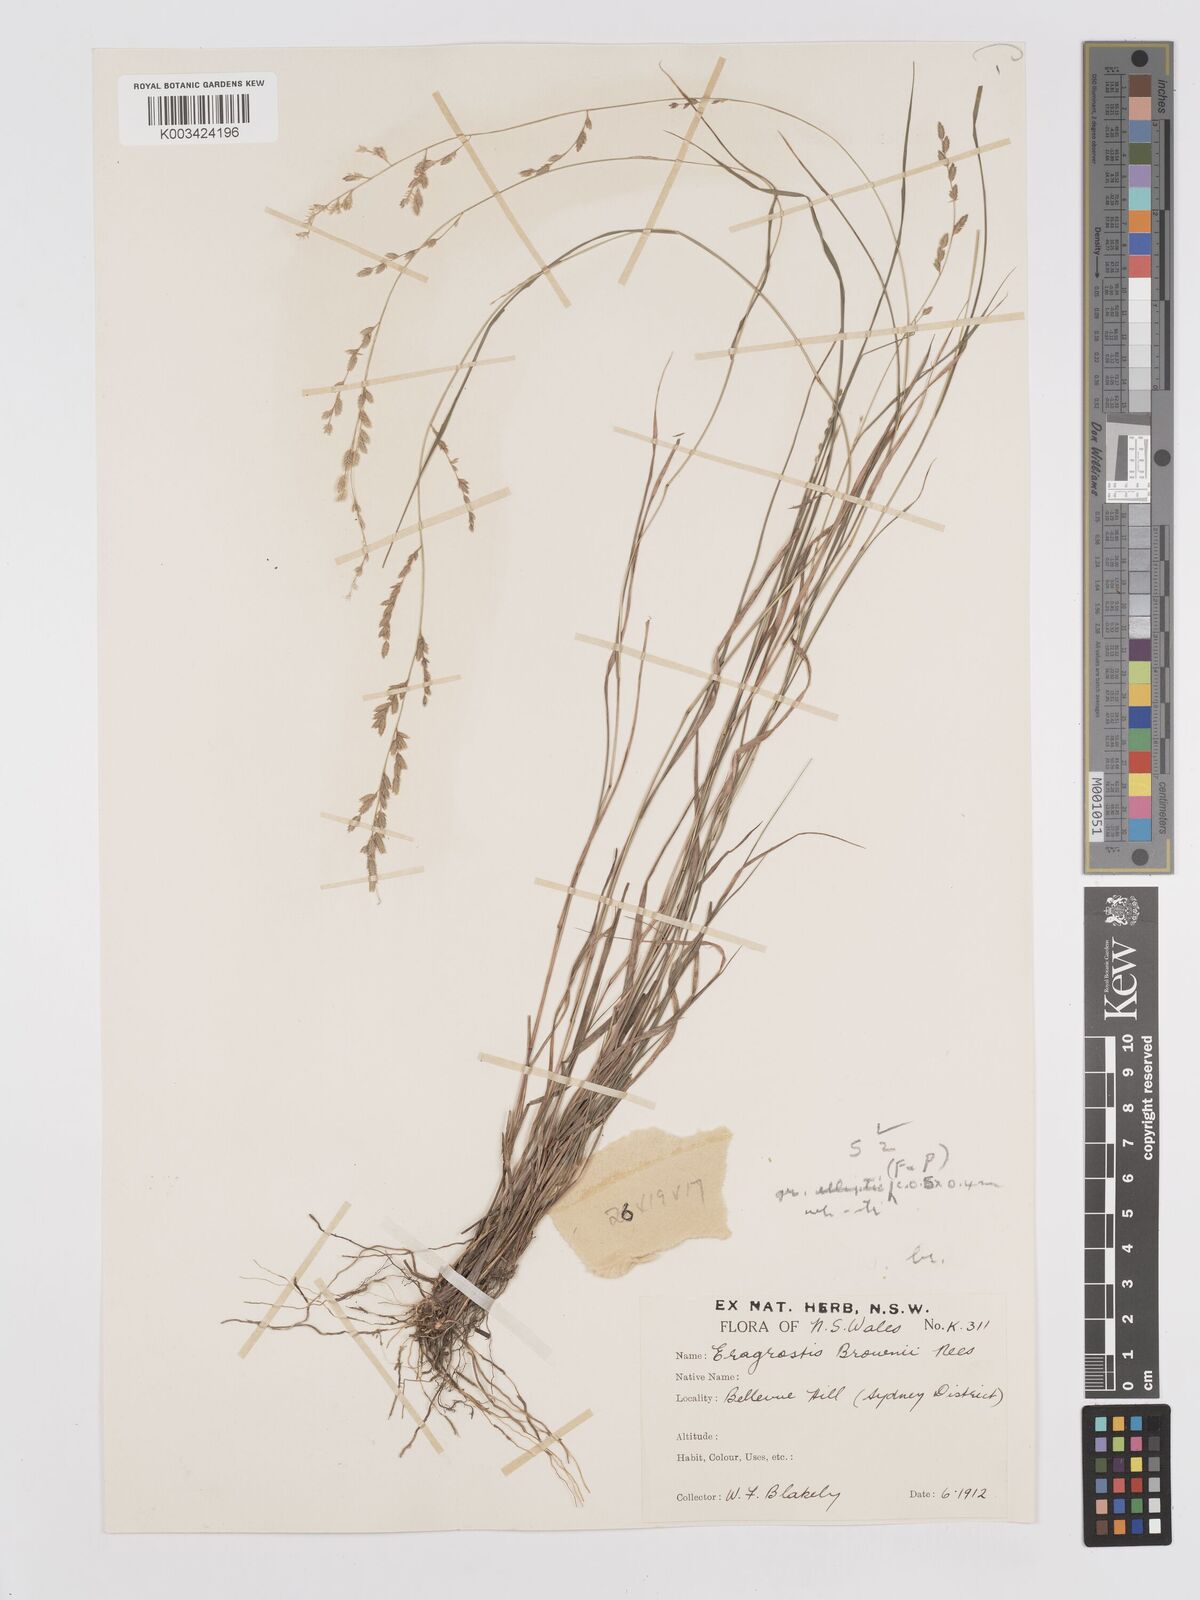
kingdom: Plantae
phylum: Tracheophyta
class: Liliopsida
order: Poales
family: Poaceae
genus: Eragrostis
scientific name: Eragrostis brownii
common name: Lovegrass
